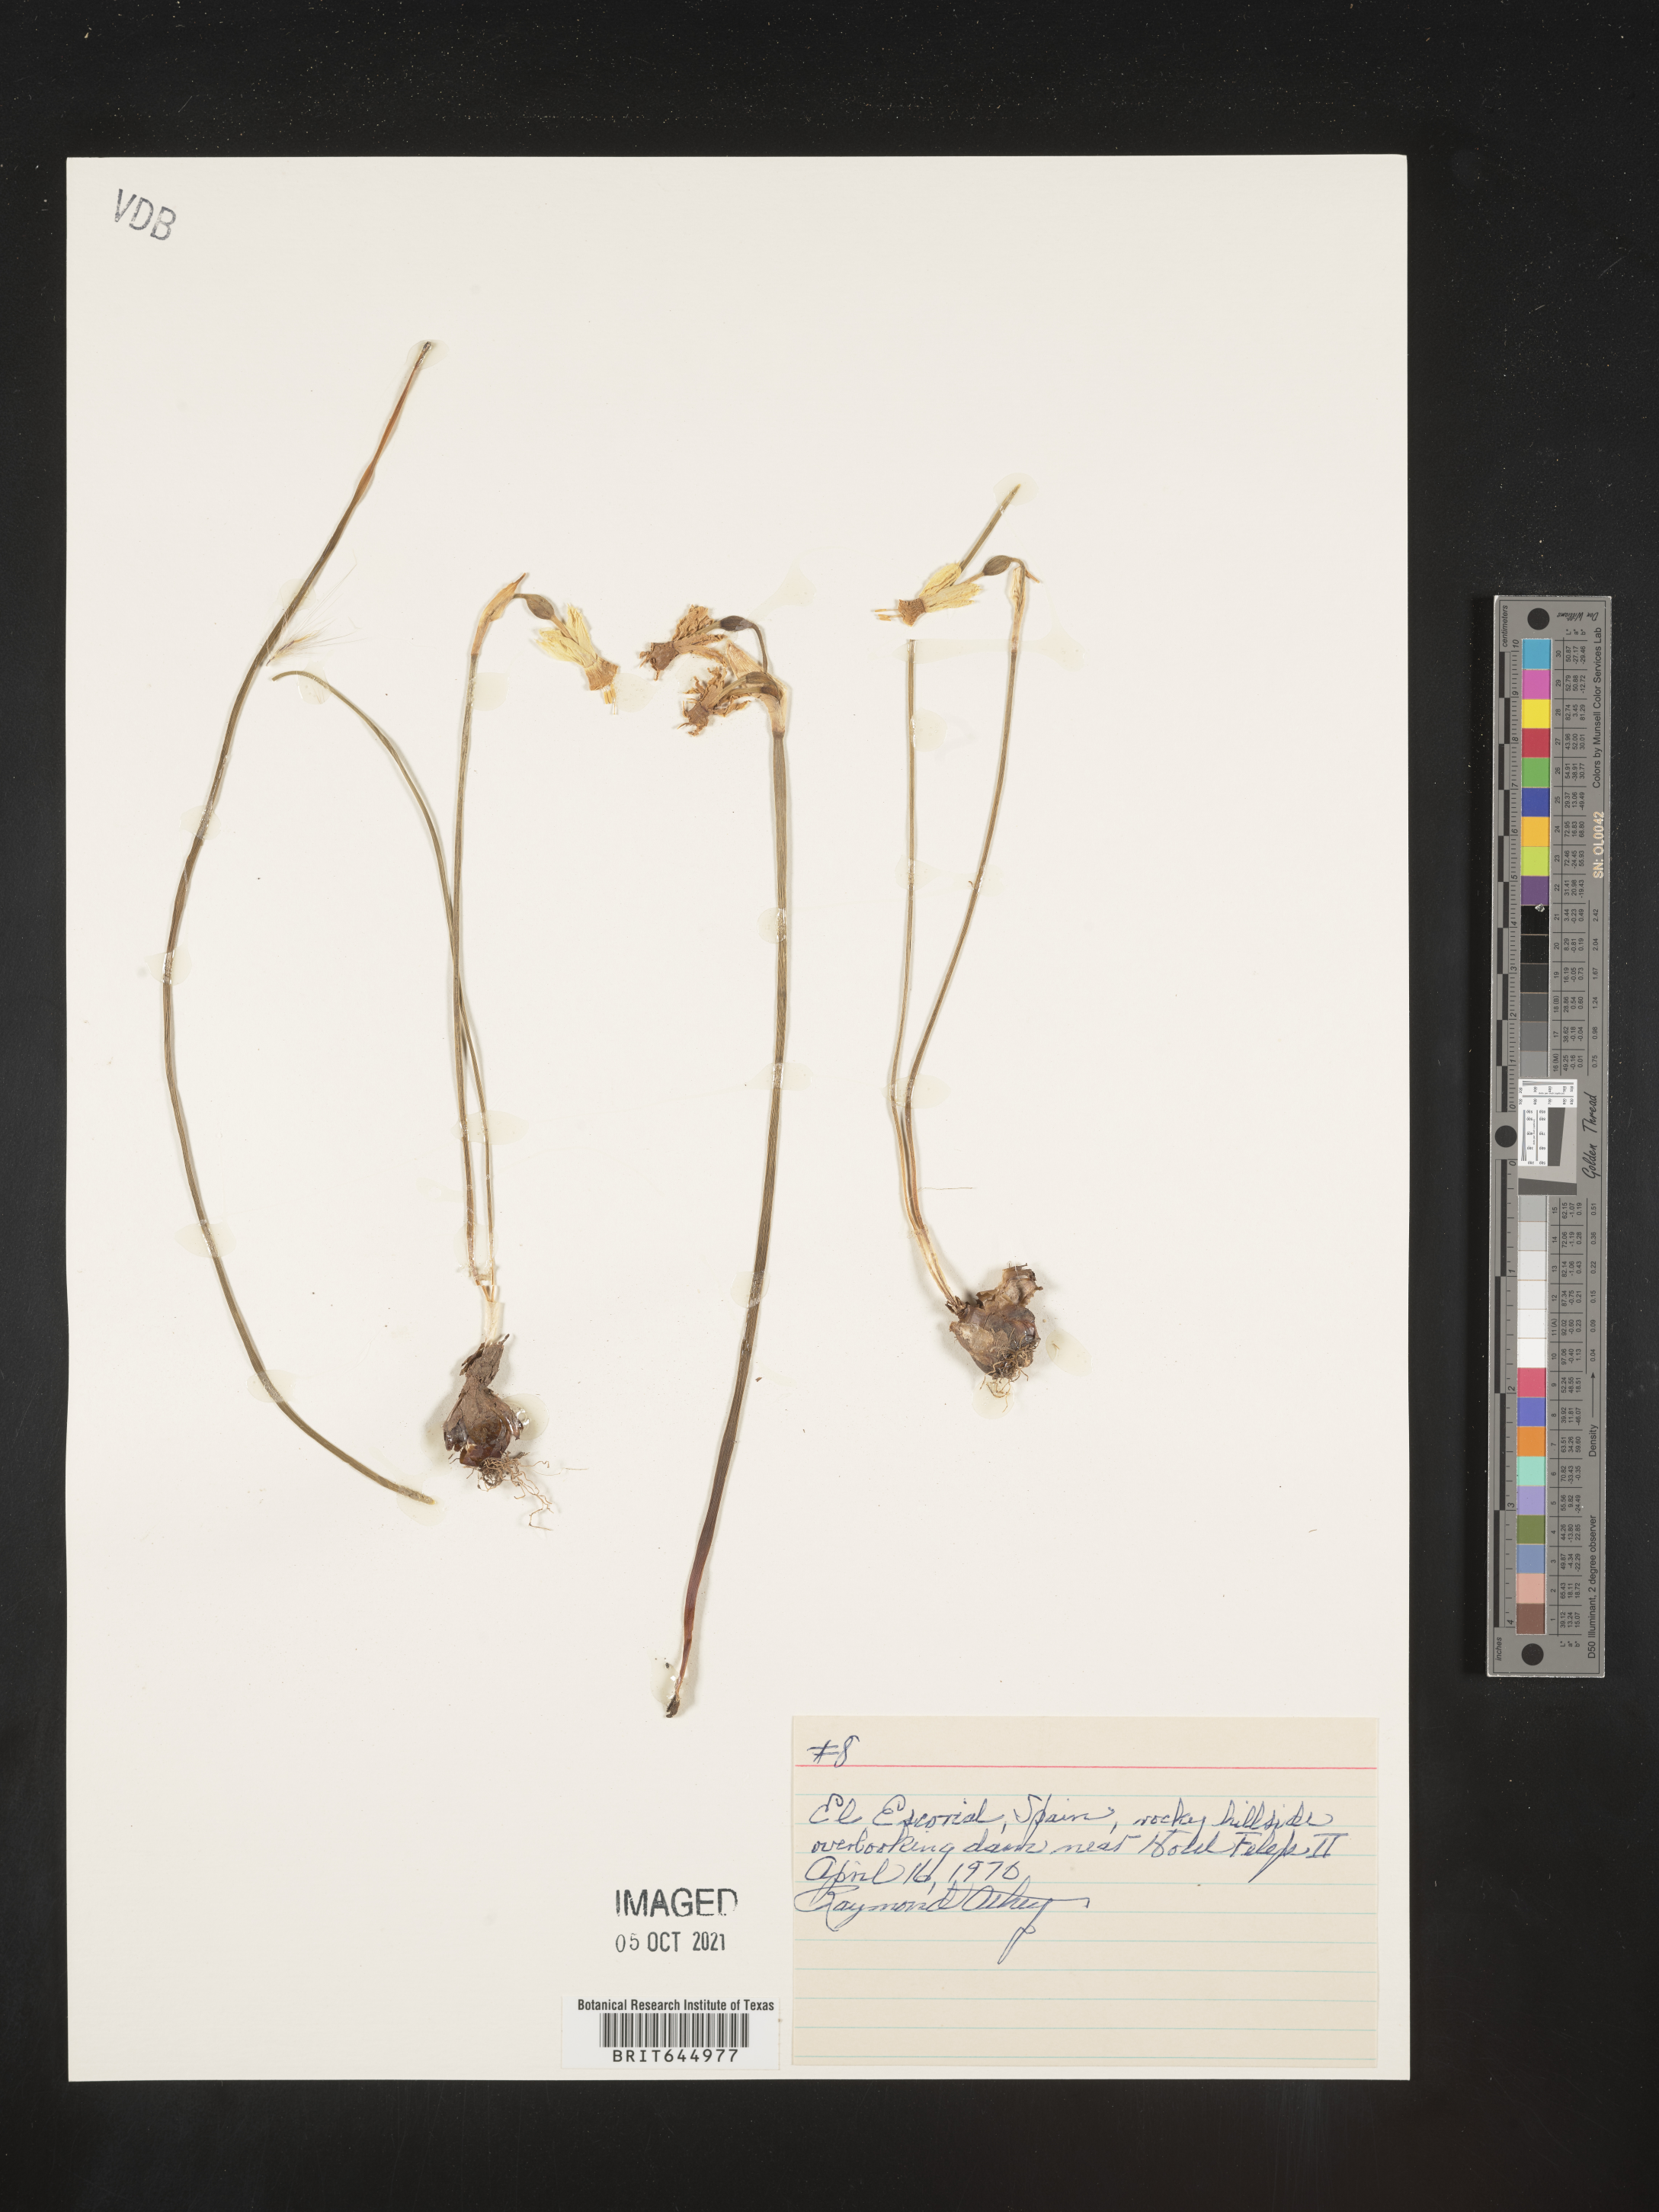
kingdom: Plantae
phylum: Tracheophyta
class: Liliopsida
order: Asparagales
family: Amaryllidaceae
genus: Narcissus
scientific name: Narcissus
